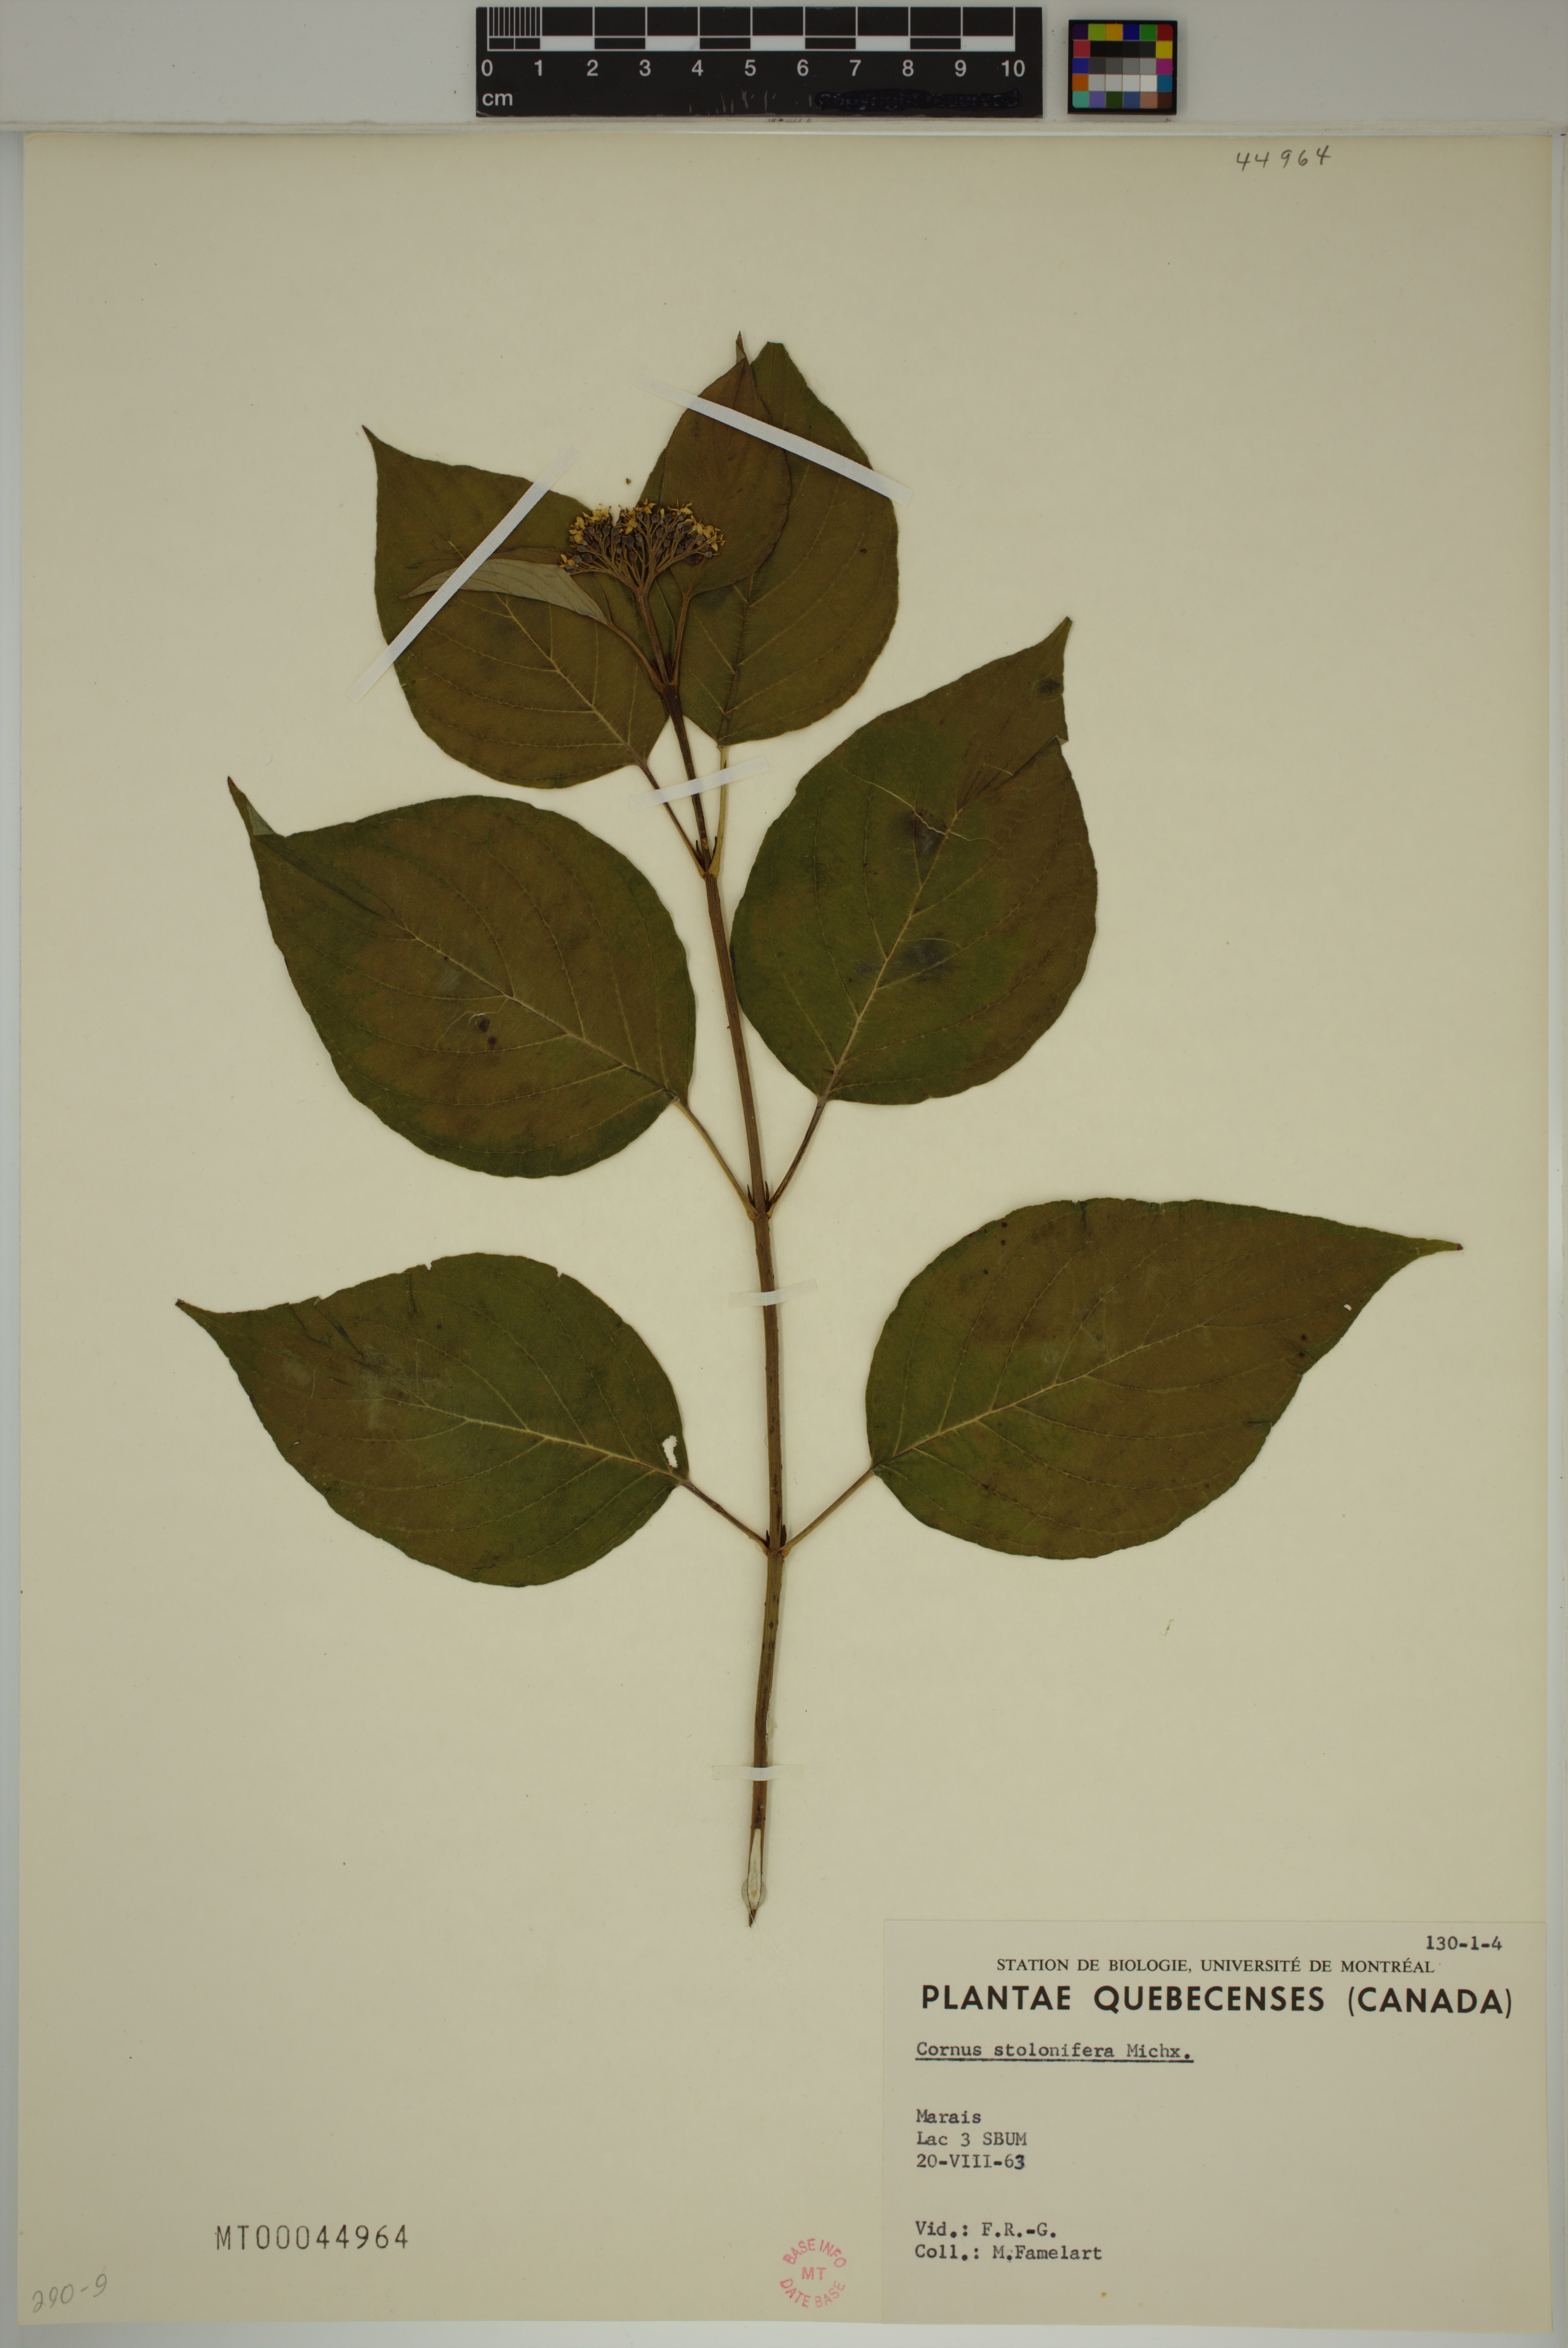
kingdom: Plantae
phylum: Tracheophyta
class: Magnoliopsida
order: Cornales
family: Cornaceae
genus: Cornus
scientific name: Cornus sericea
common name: Red-osier dogwood
